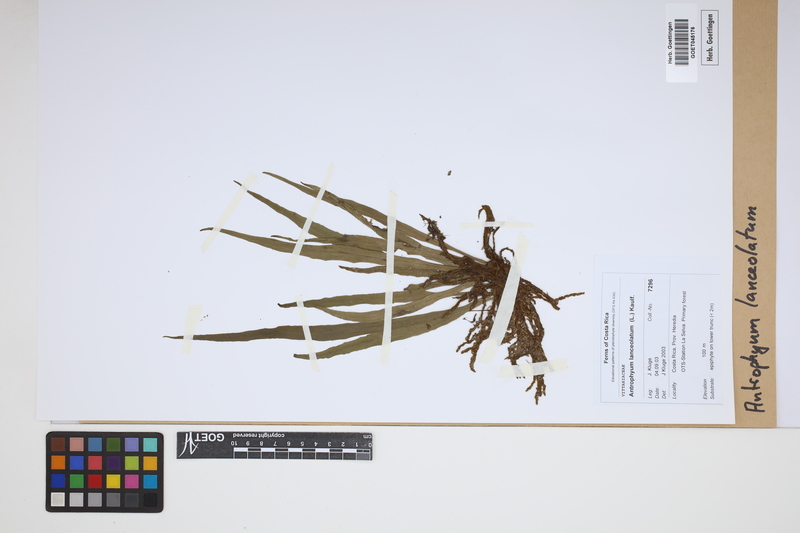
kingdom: Plantae
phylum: Tracheophyta
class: Polypodiopsida
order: Polypodiales
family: Pteridaceae
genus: Polytaenium
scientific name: Polytaenium feei
